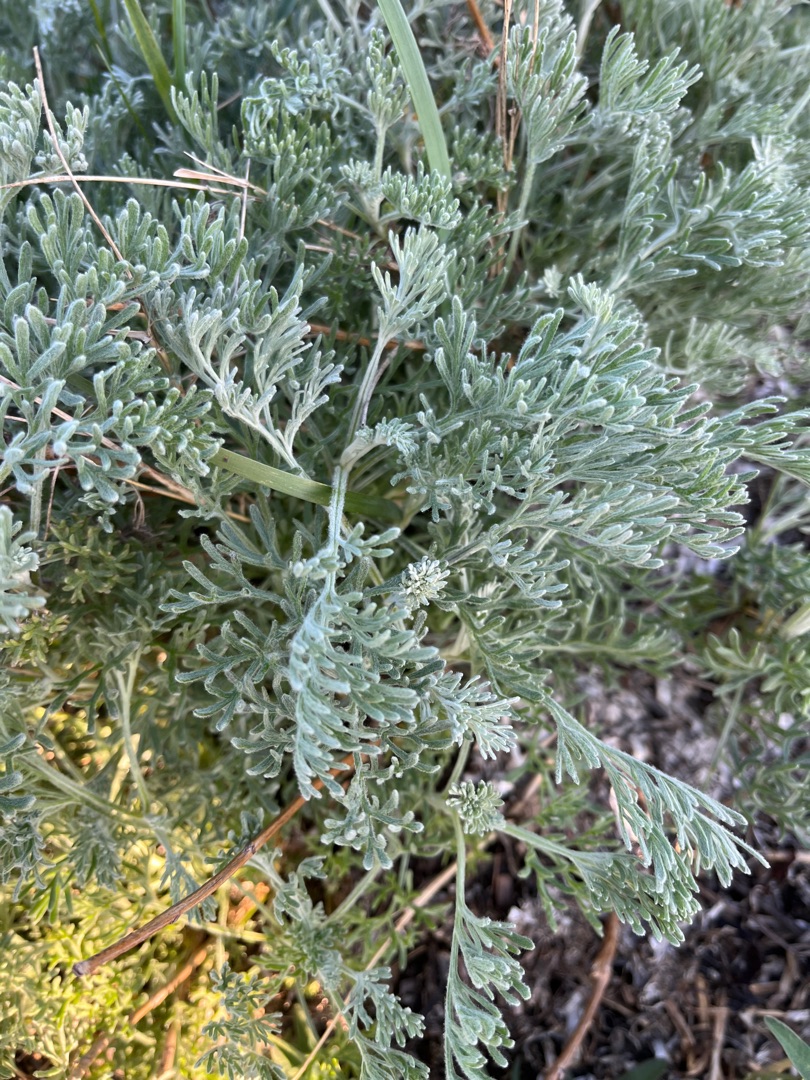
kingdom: Plantae
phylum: Tracheophyta
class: Magnoliopsida
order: Asterales
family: Asteraceae
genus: Artemisia
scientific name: Artemisia maritima
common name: Strandmalurt
